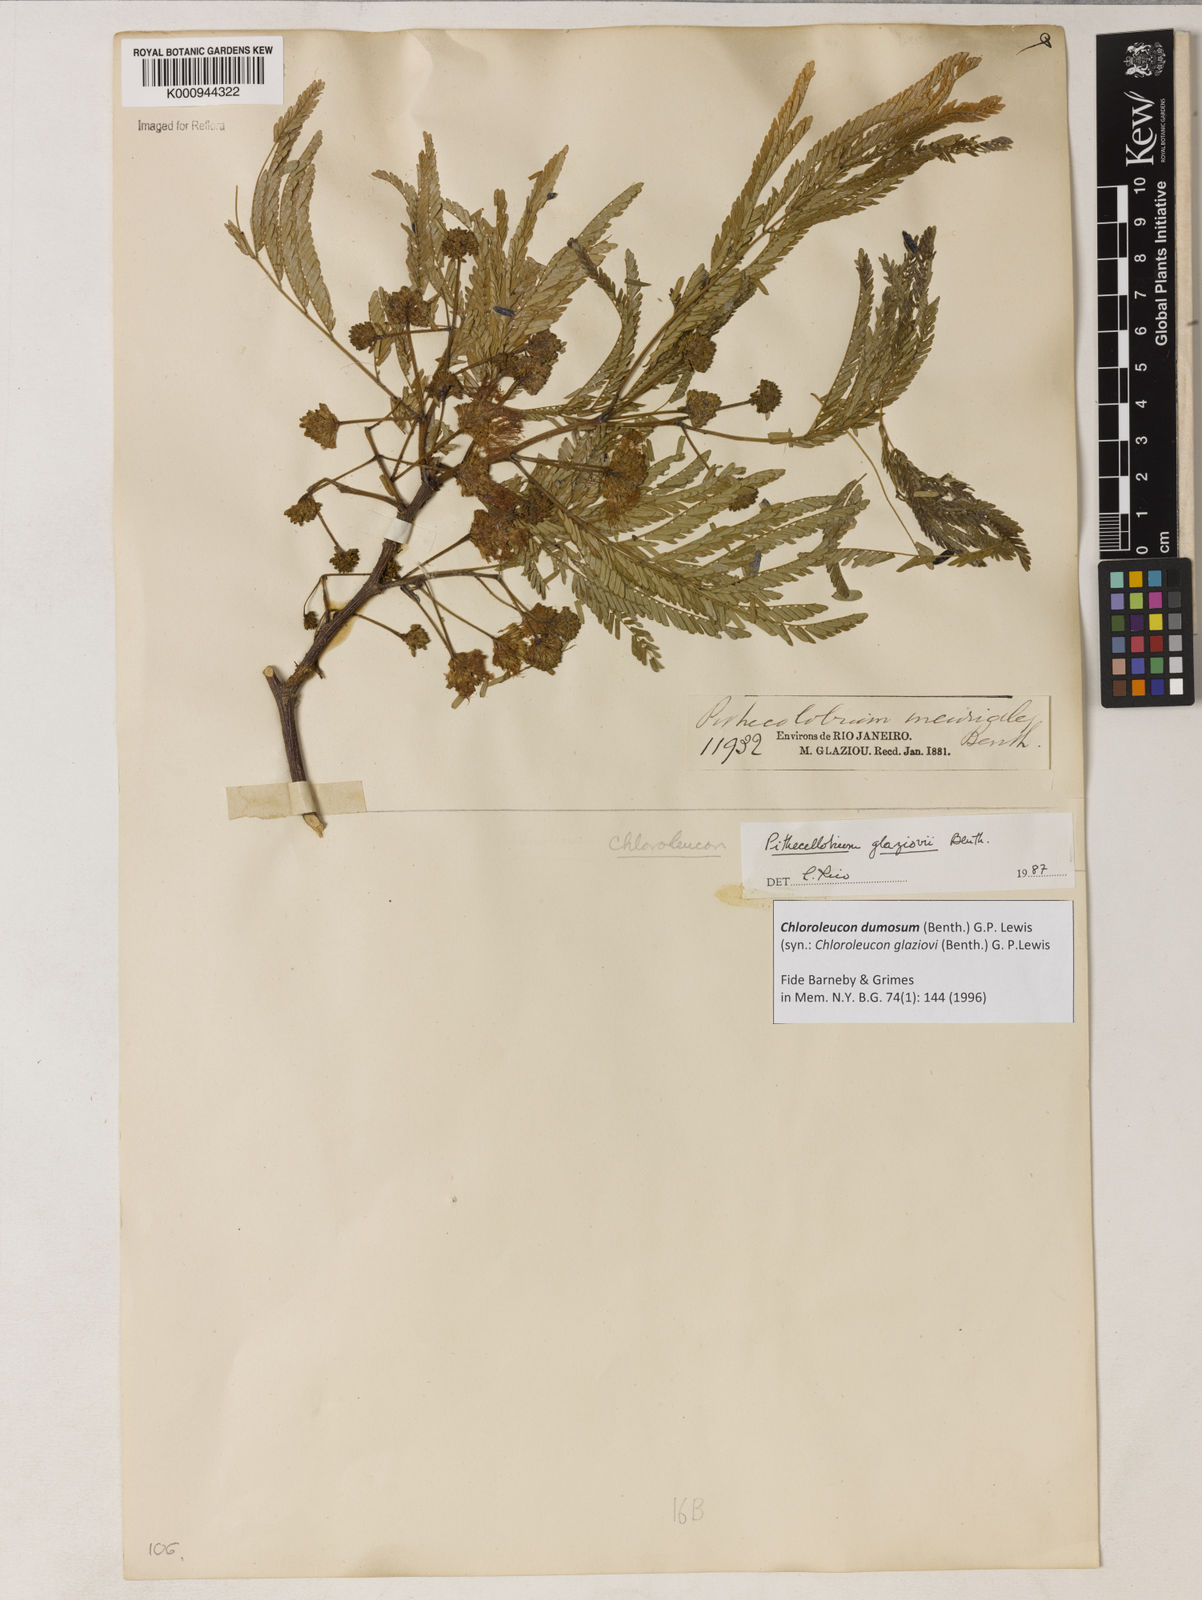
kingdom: Plantae
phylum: Tracheophyta
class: Magnoliopsida
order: Fabales
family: Fabaceae
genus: Inga
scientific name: Inga stenoptera
